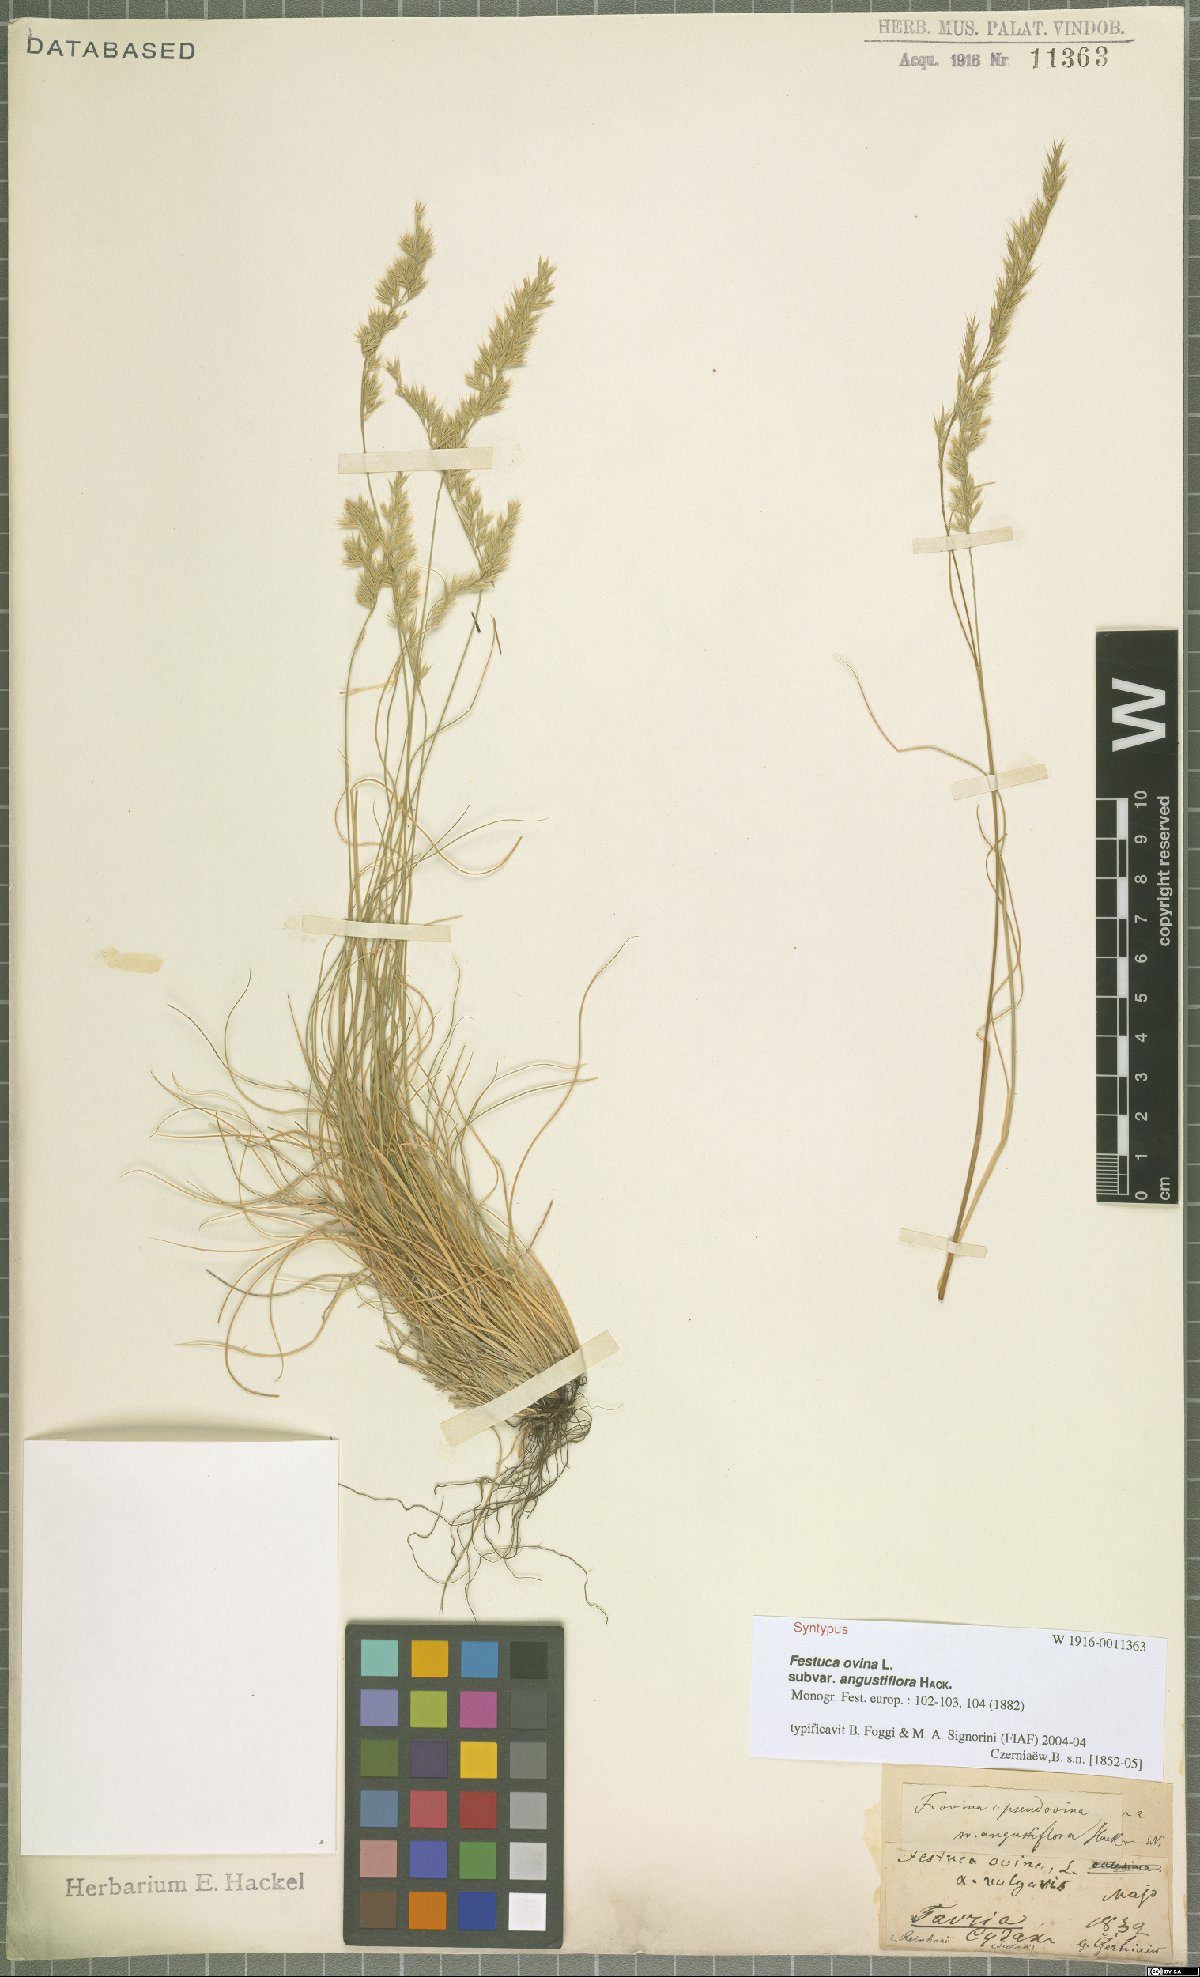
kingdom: Plantae
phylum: Tracheophyta
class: Liliopsida
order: Poales
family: Poaceae
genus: Festuca
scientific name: Festuca ovina
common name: Sheep fescue
